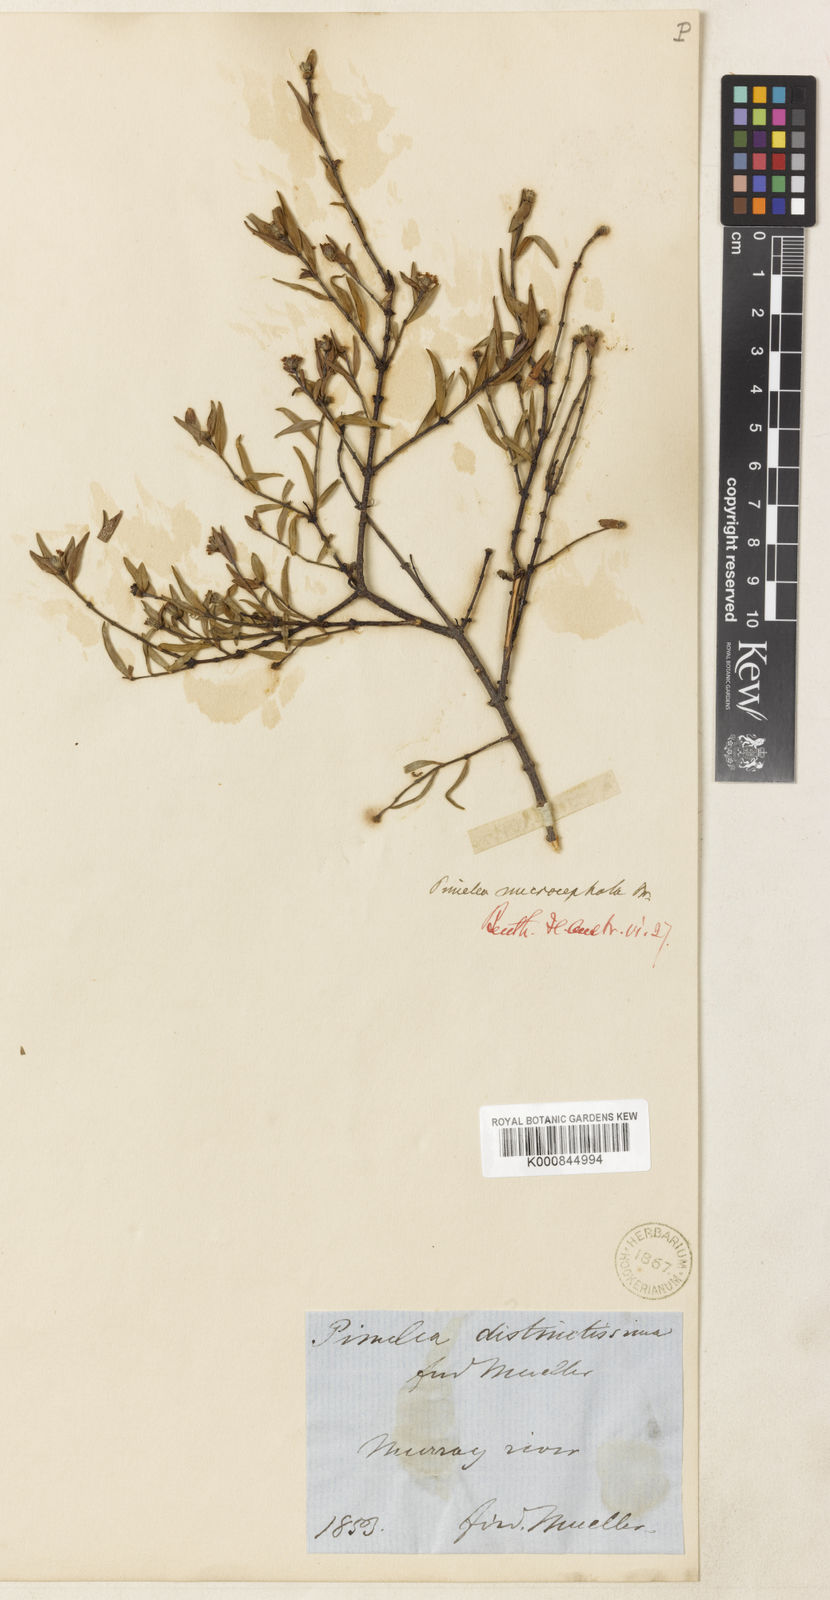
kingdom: Plantae
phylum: Tracheophyta
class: Magnoliopsida
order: Malvales
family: Thymelaeaceae
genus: Pimelea
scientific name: Pimelea microcephala
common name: Mallee riceflower
